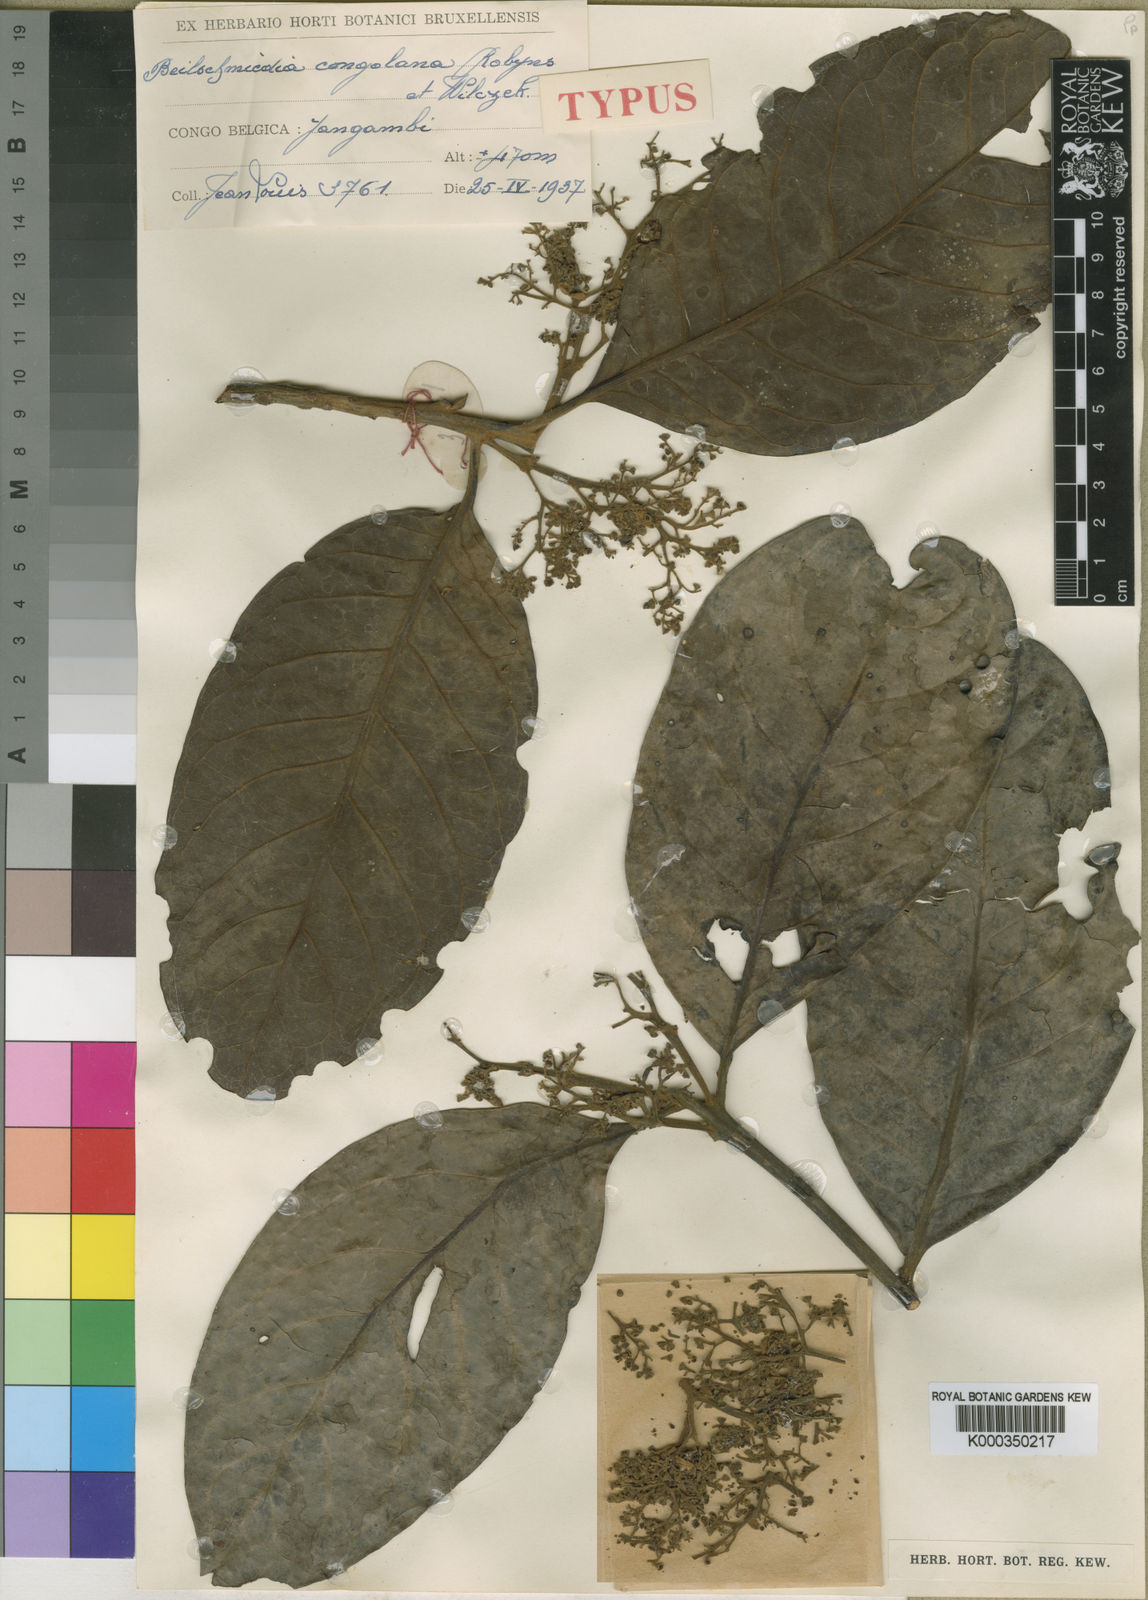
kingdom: Plantae
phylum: Tracheophyta
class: Magnoliopsida
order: Laurales
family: Lauraceae
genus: Beilschmiedia
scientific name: Beilschmiedia congolana
